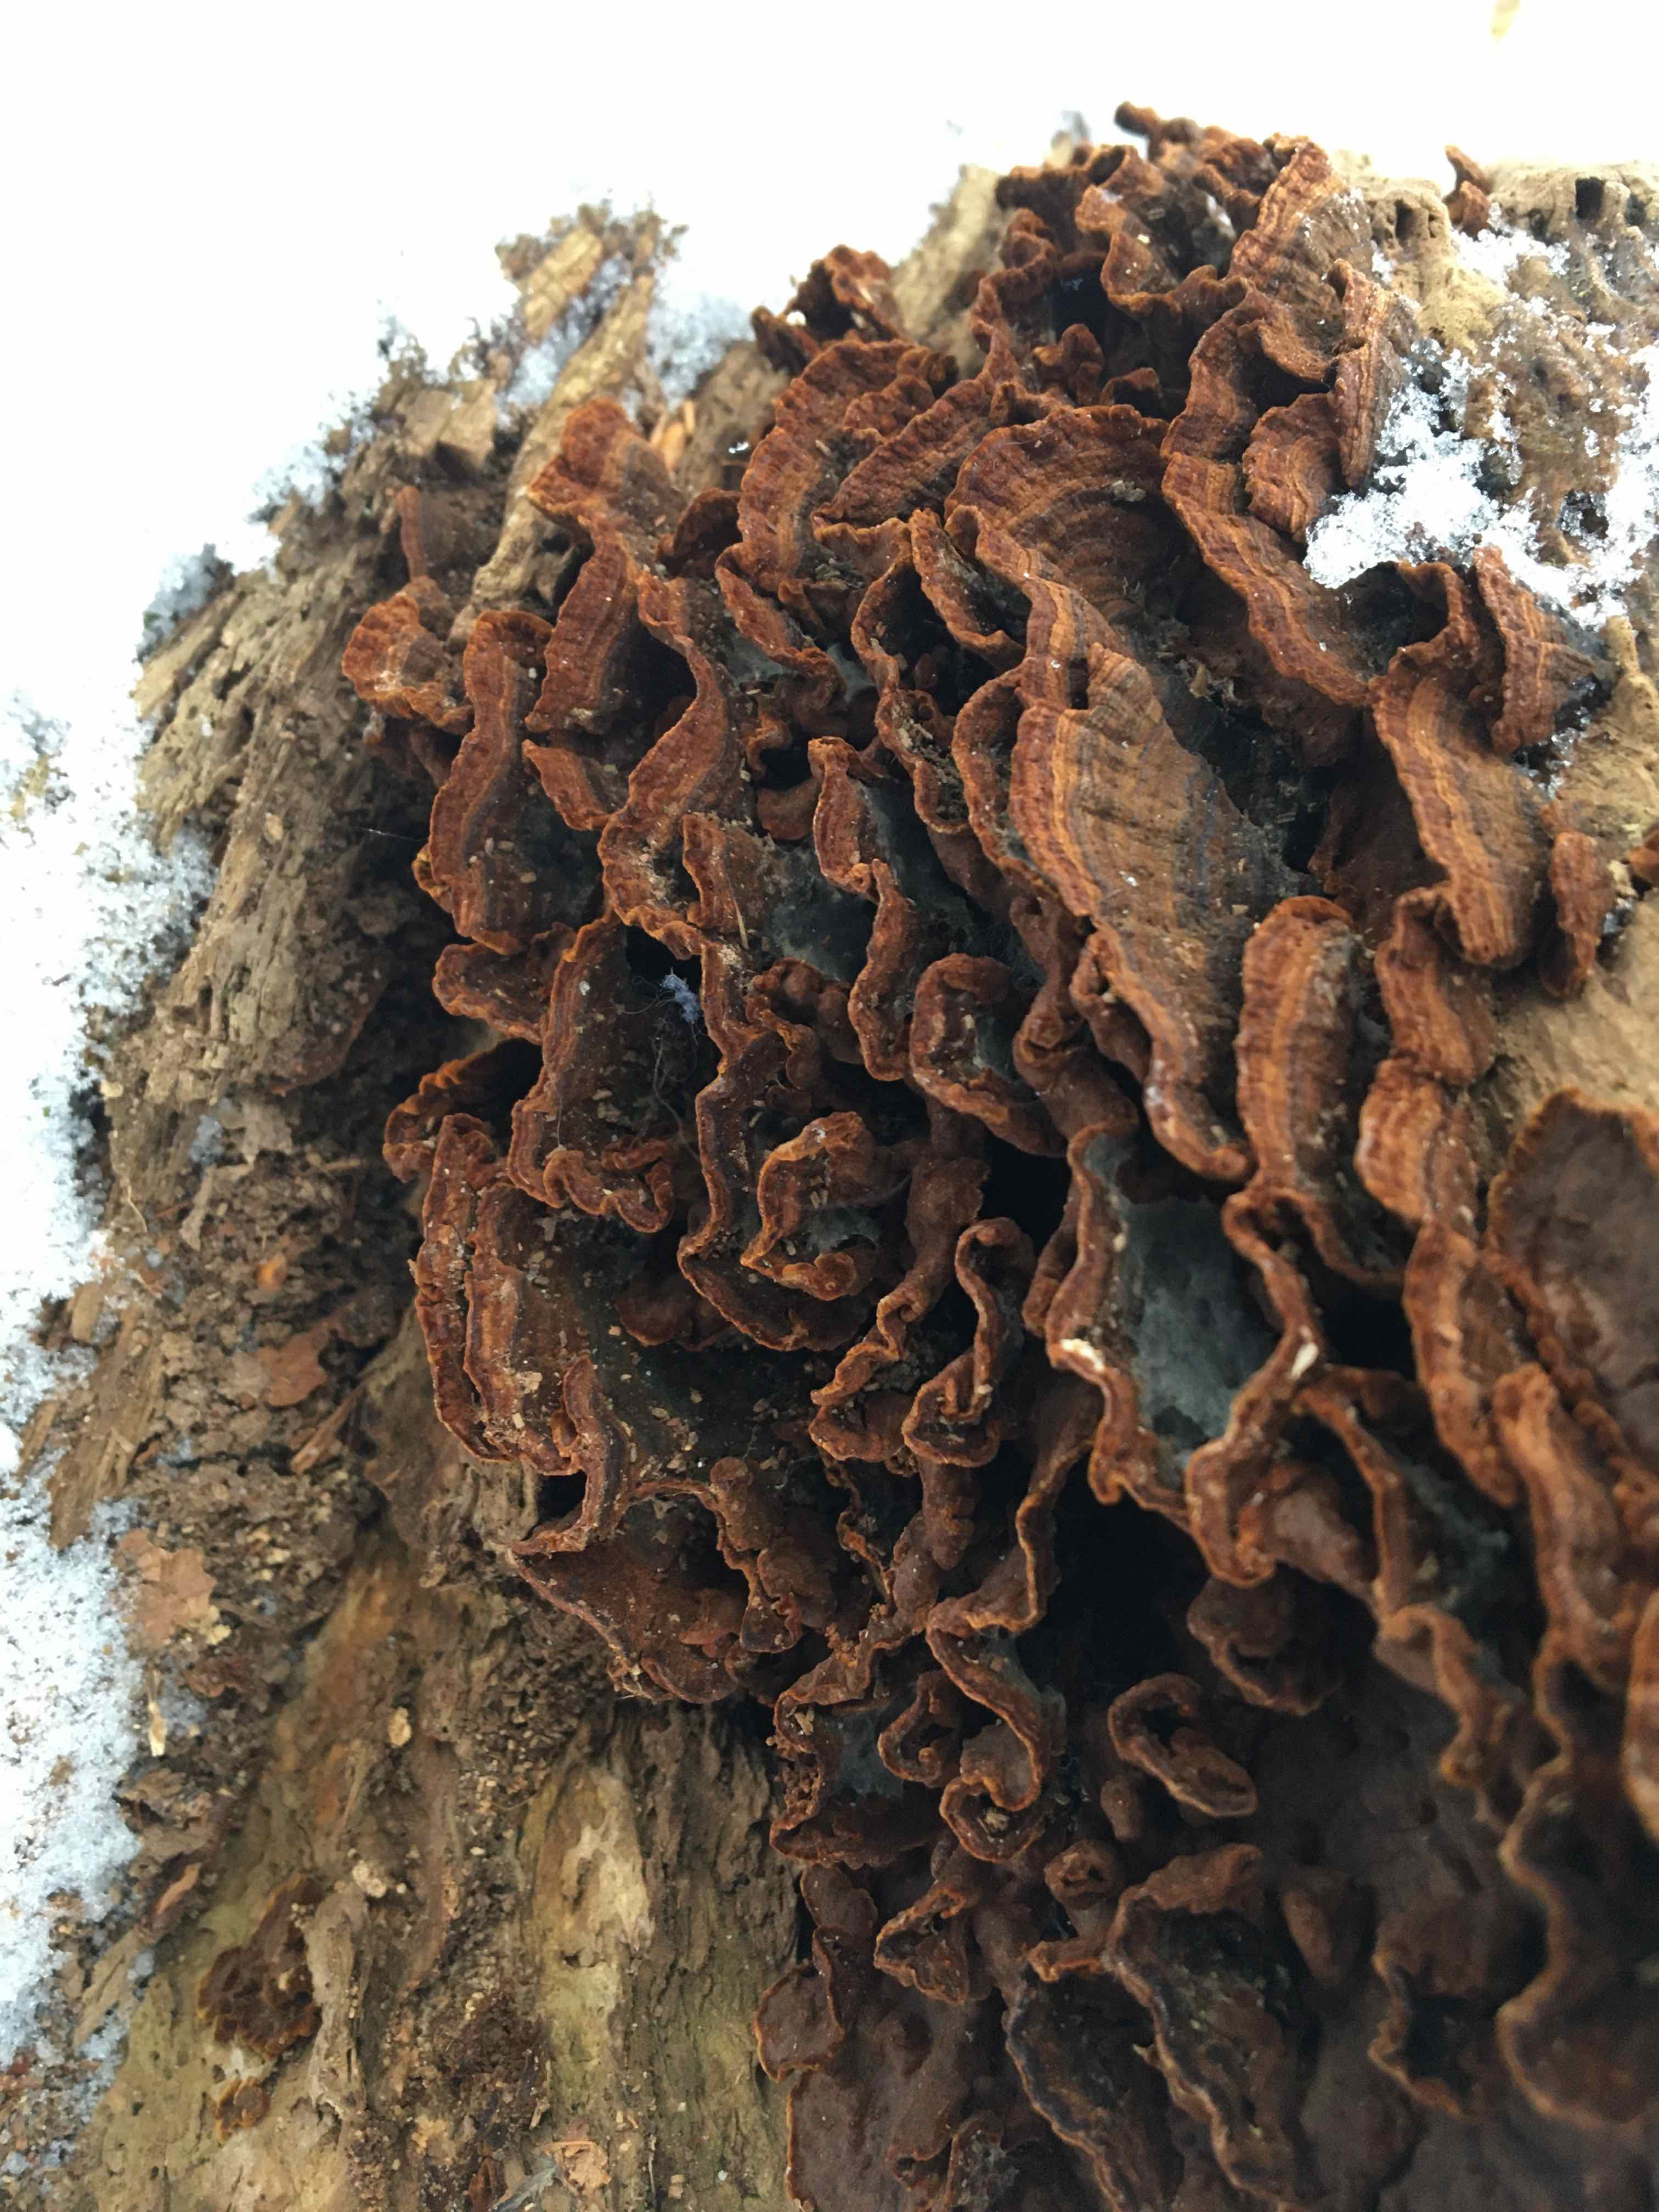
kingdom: Fungi
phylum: Basidiomycota
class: Agaricomycetes
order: Hymenochaetales
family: Hymenochaetaceae
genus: Hymenochaete
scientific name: Hymenochaete rubiginosa
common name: stiv ruslædersvamp
